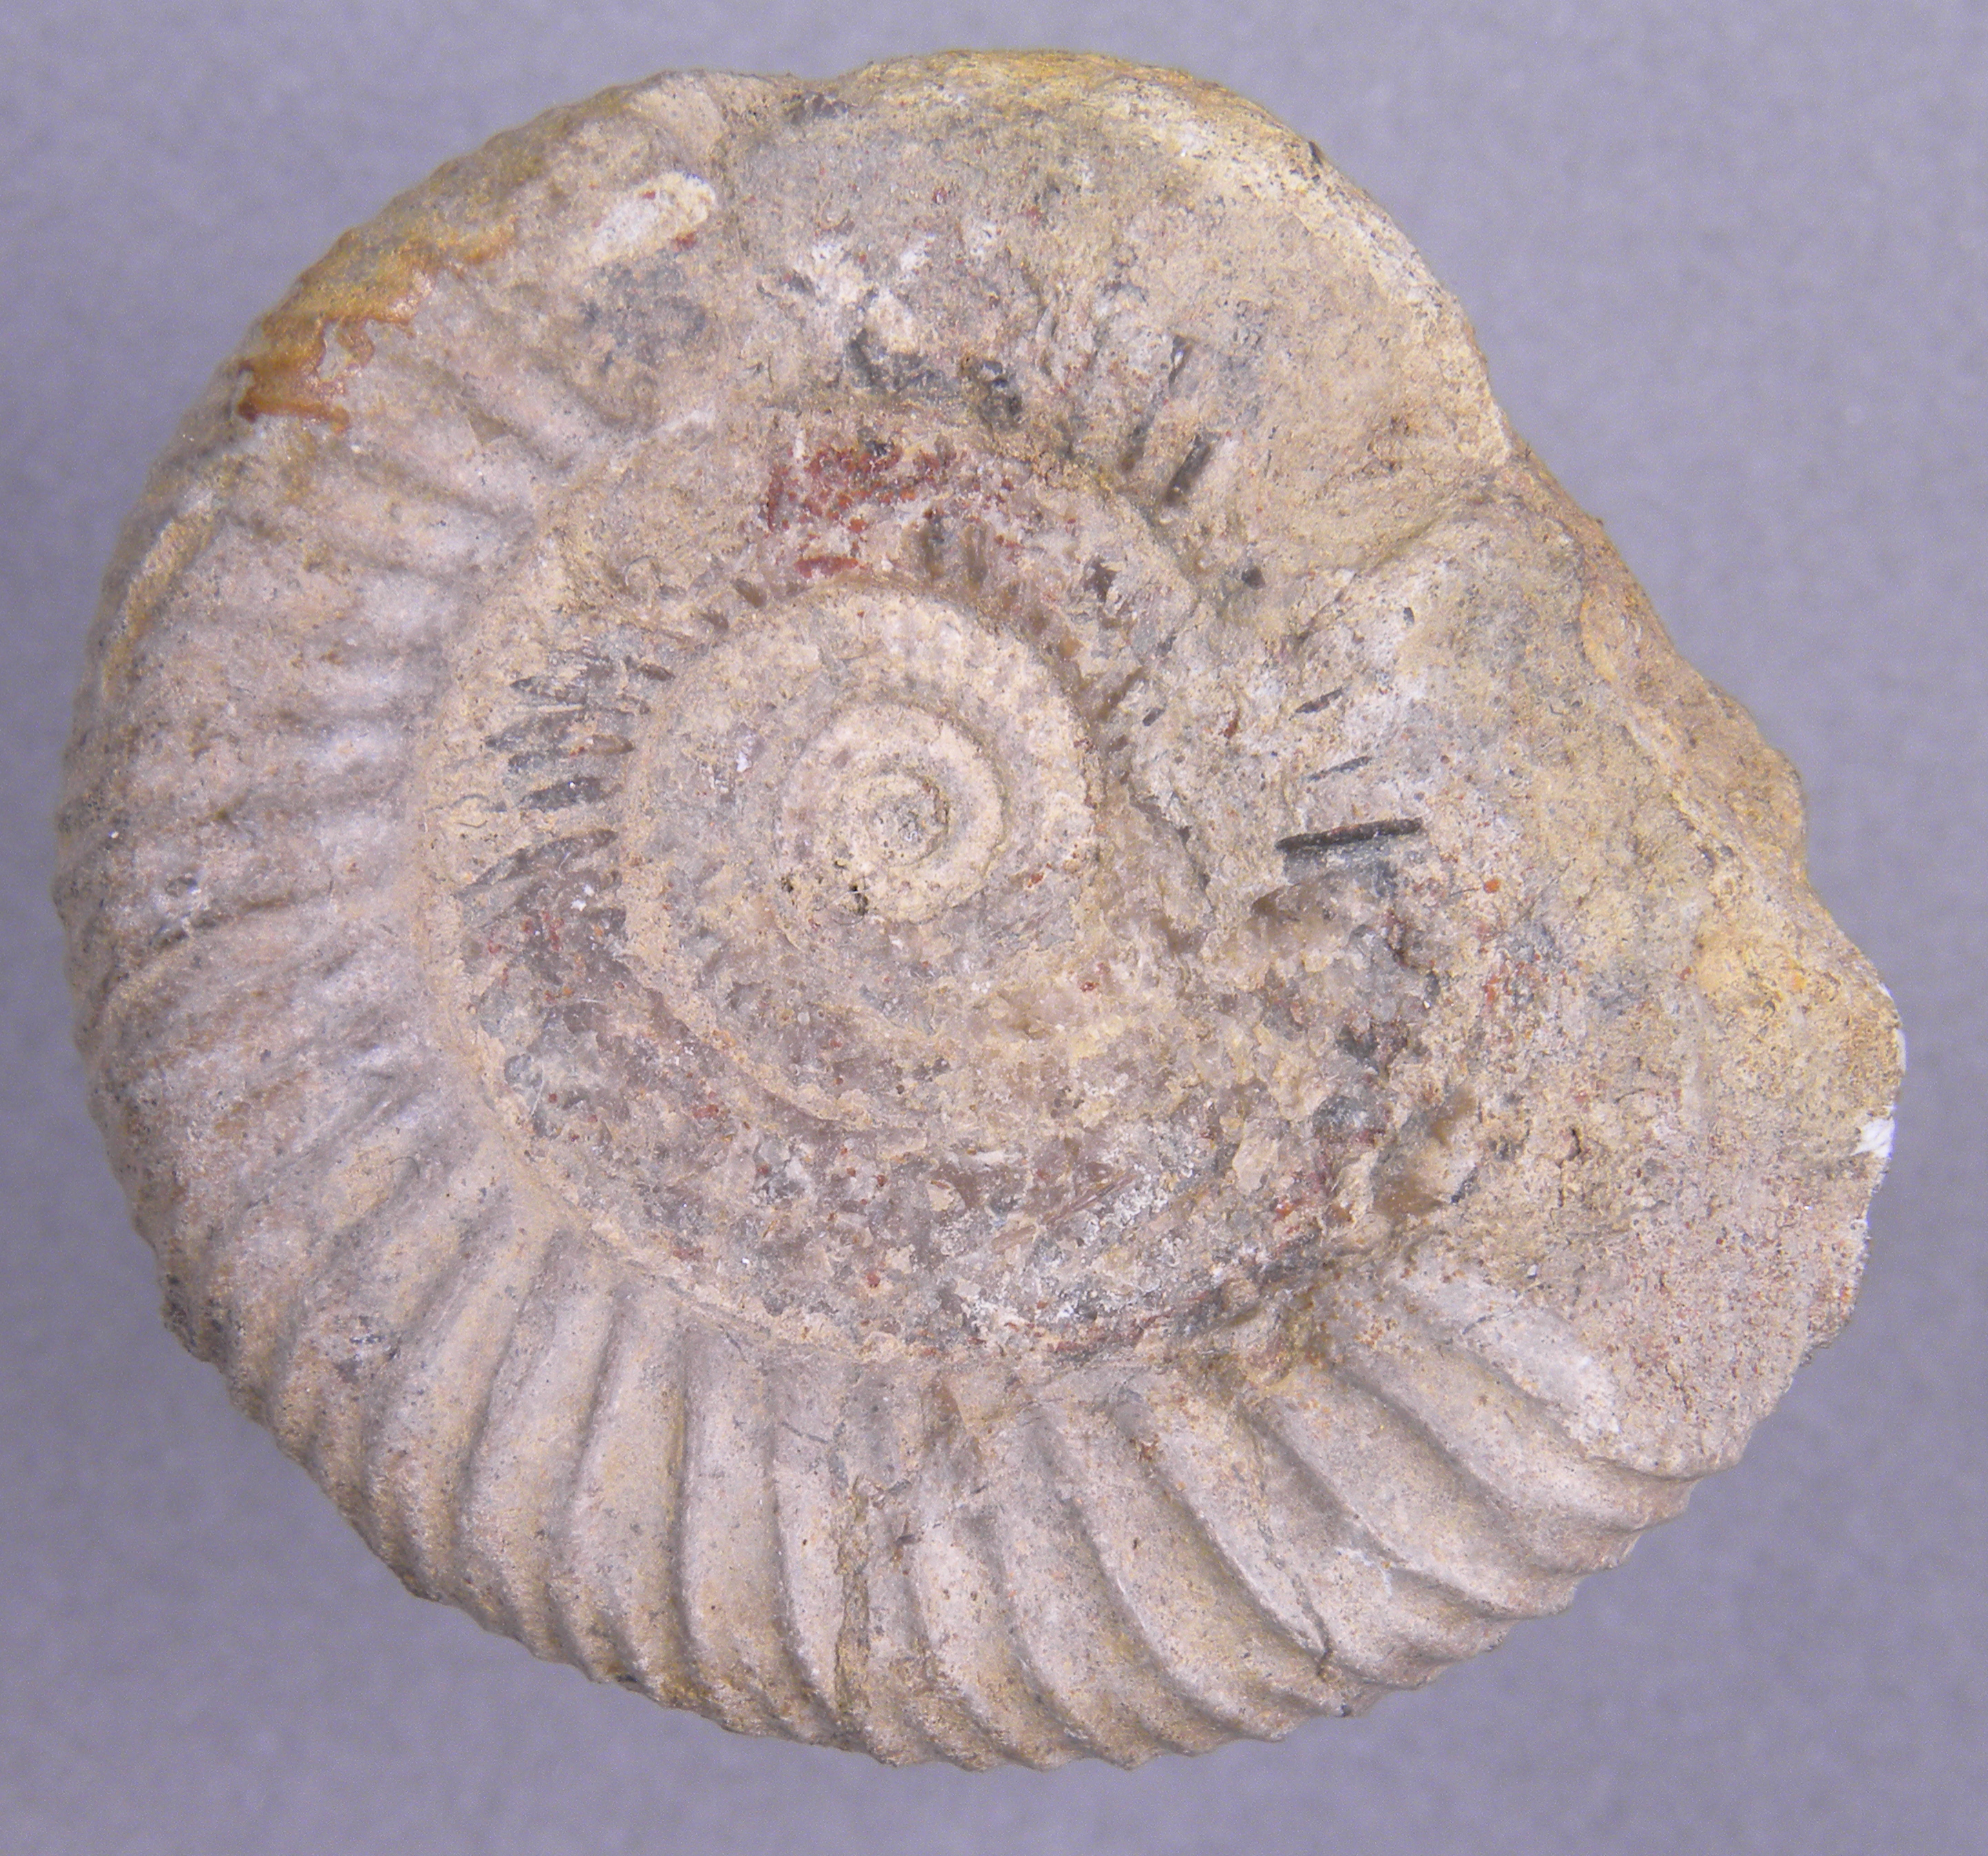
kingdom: Animalia
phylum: Mollusca
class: Cephalopoda
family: Dactylioceratidae
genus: Dactylioceras
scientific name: Dactylioceras athleticum
